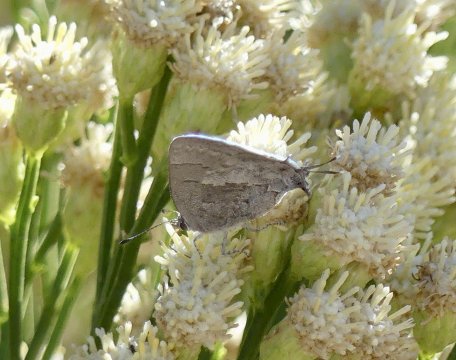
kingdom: Animalia
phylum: Arthropoda
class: Insecta
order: Lepidoptera
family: Lycaenidae
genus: Ministrymon
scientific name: Ministrymon leda
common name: Leda Ministreak
